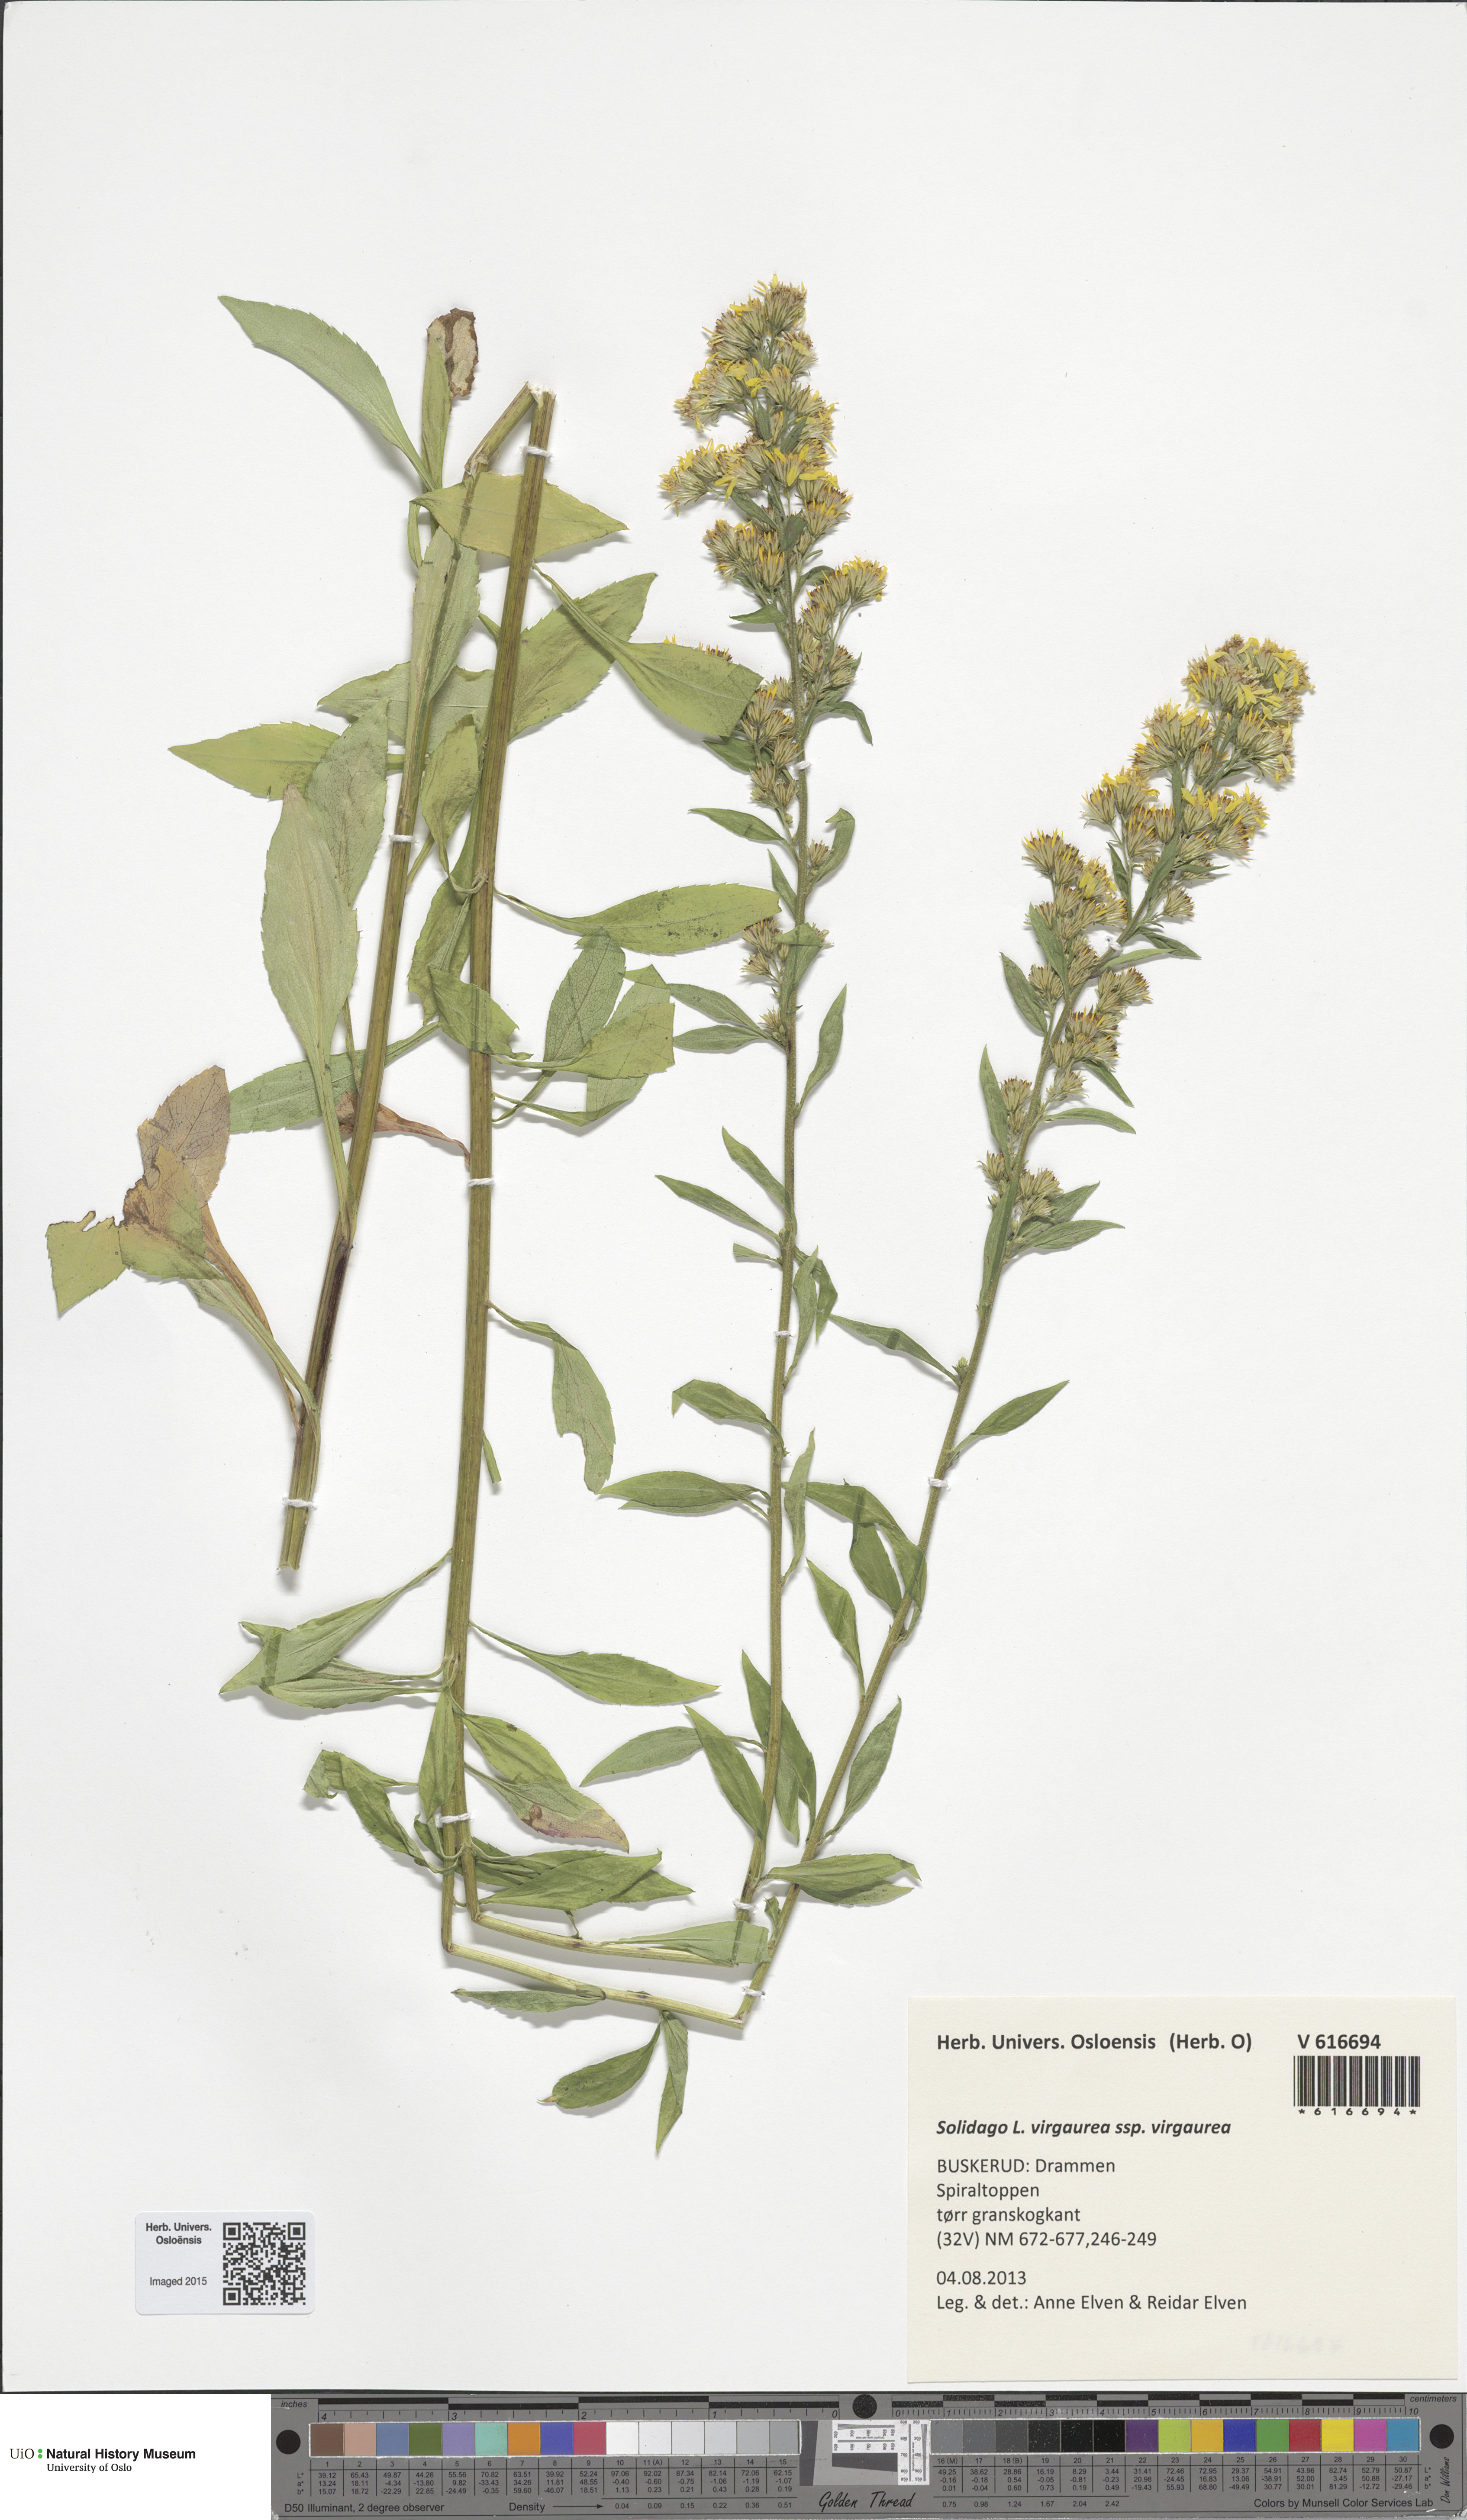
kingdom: Plantae
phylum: Tracheophyta
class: Magnoliopsida
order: Asterales
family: Asteraceae
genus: Solidago
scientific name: Solidago virgaurea
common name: Goldenrod
